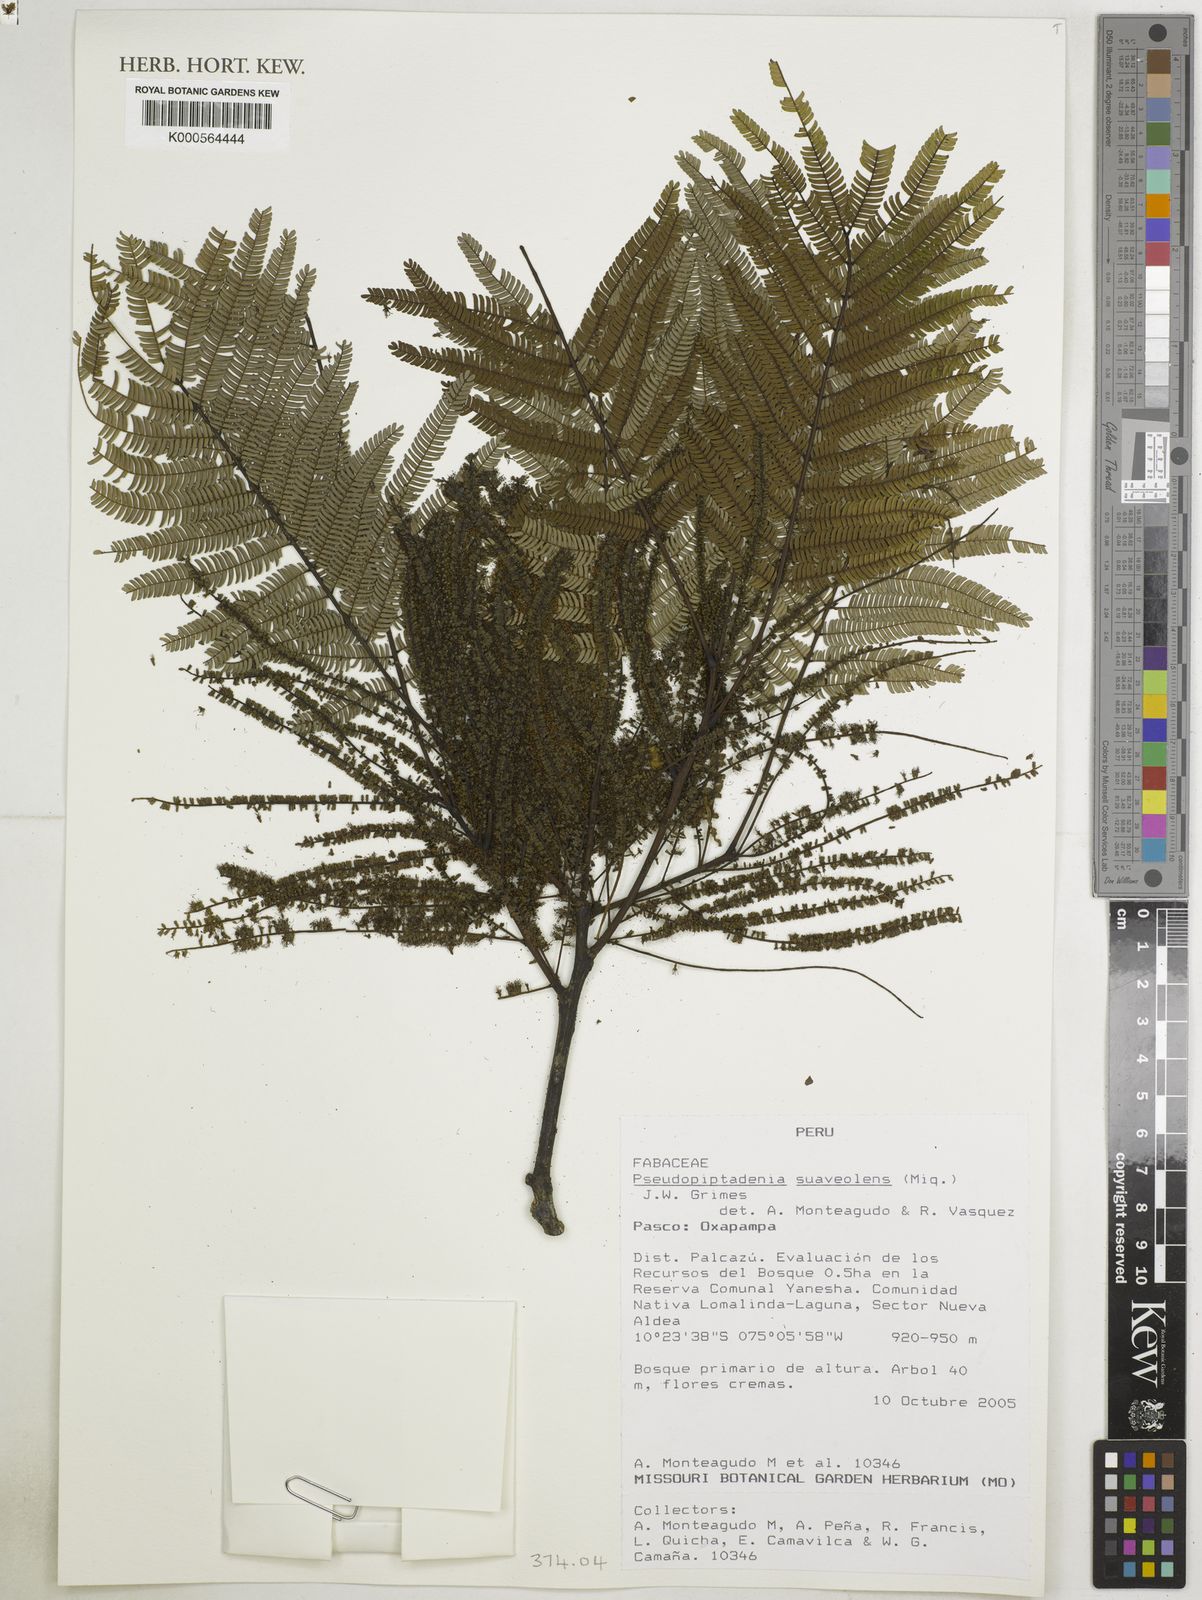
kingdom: Plantae
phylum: Tracheophyta
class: Magnoliopsida
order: Fabales
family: Fabaceae
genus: Pseudopiptadenia
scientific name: Pseudopiptadenia suaveolens
